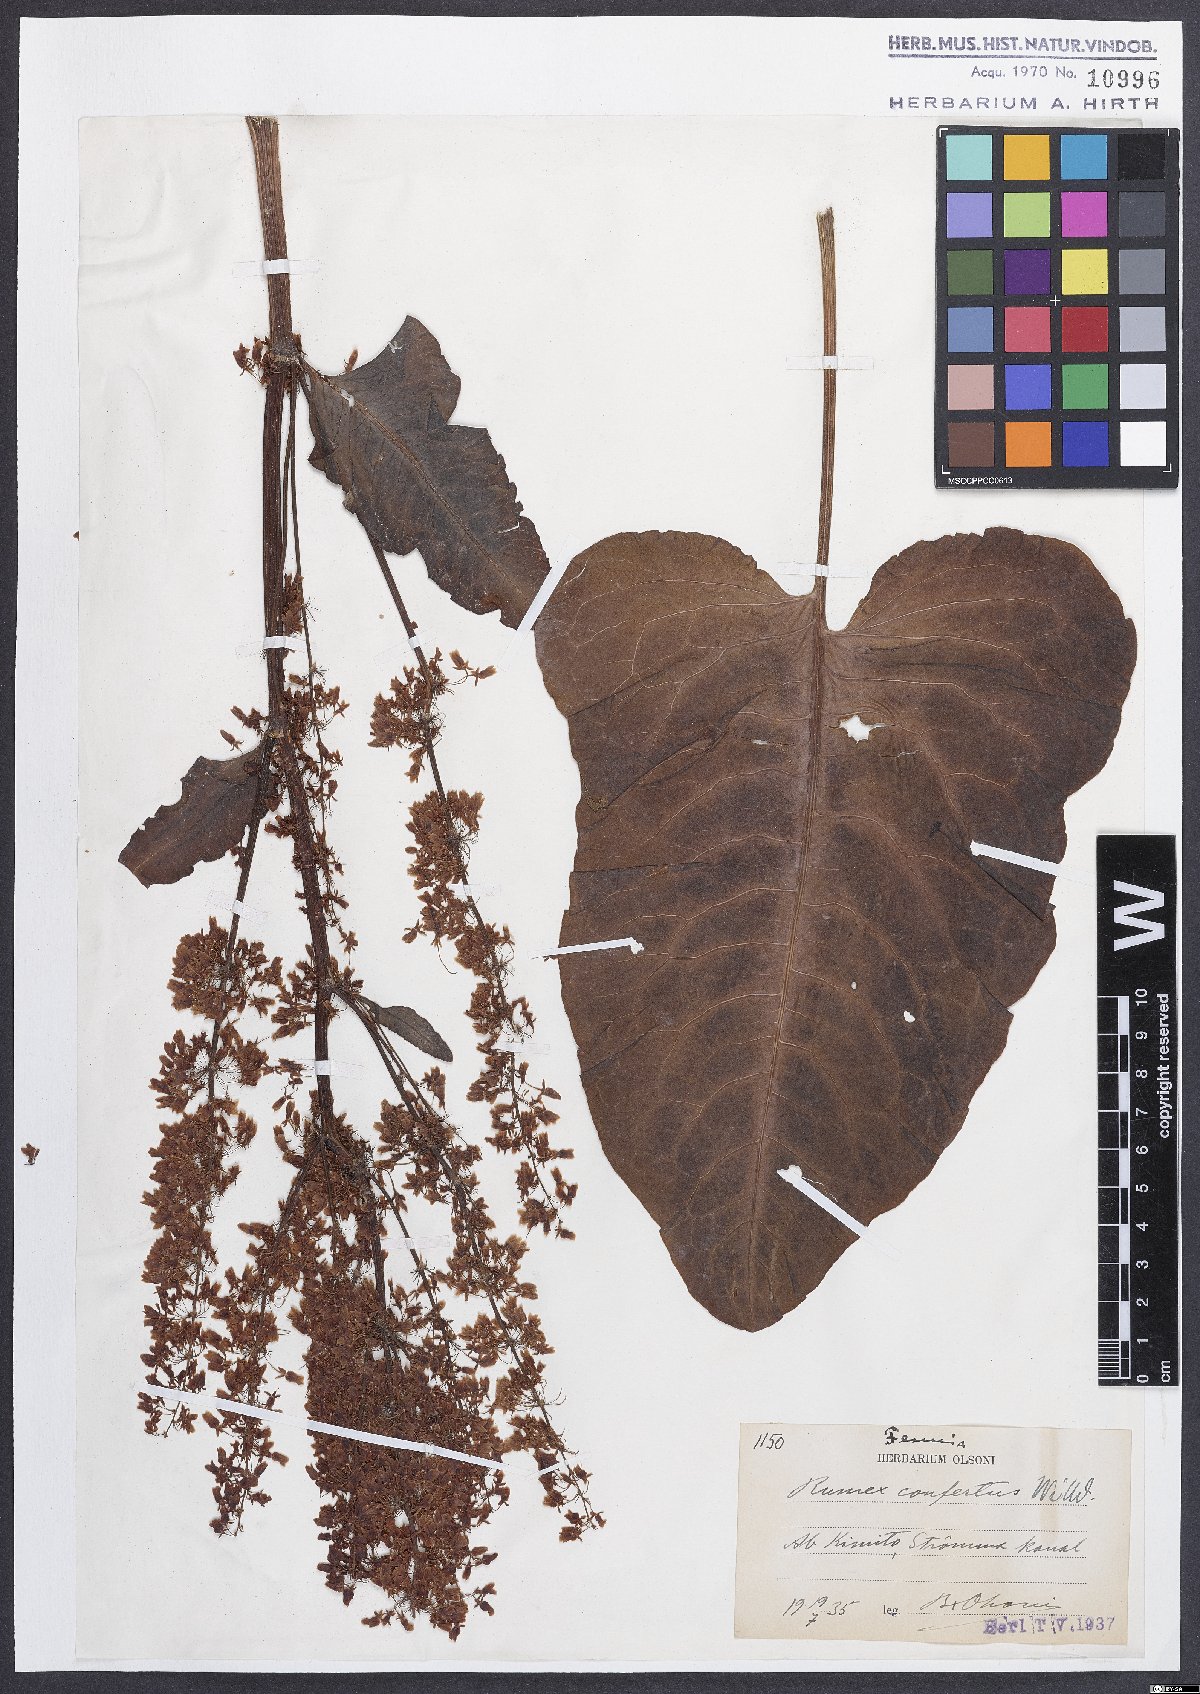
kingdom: Plantae
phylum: Tracheophyta
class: Magnoliopsida
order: Caryophyllales
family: Polygonaceae
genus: Rumex
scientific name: Rumex confertus
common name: Russian dock
